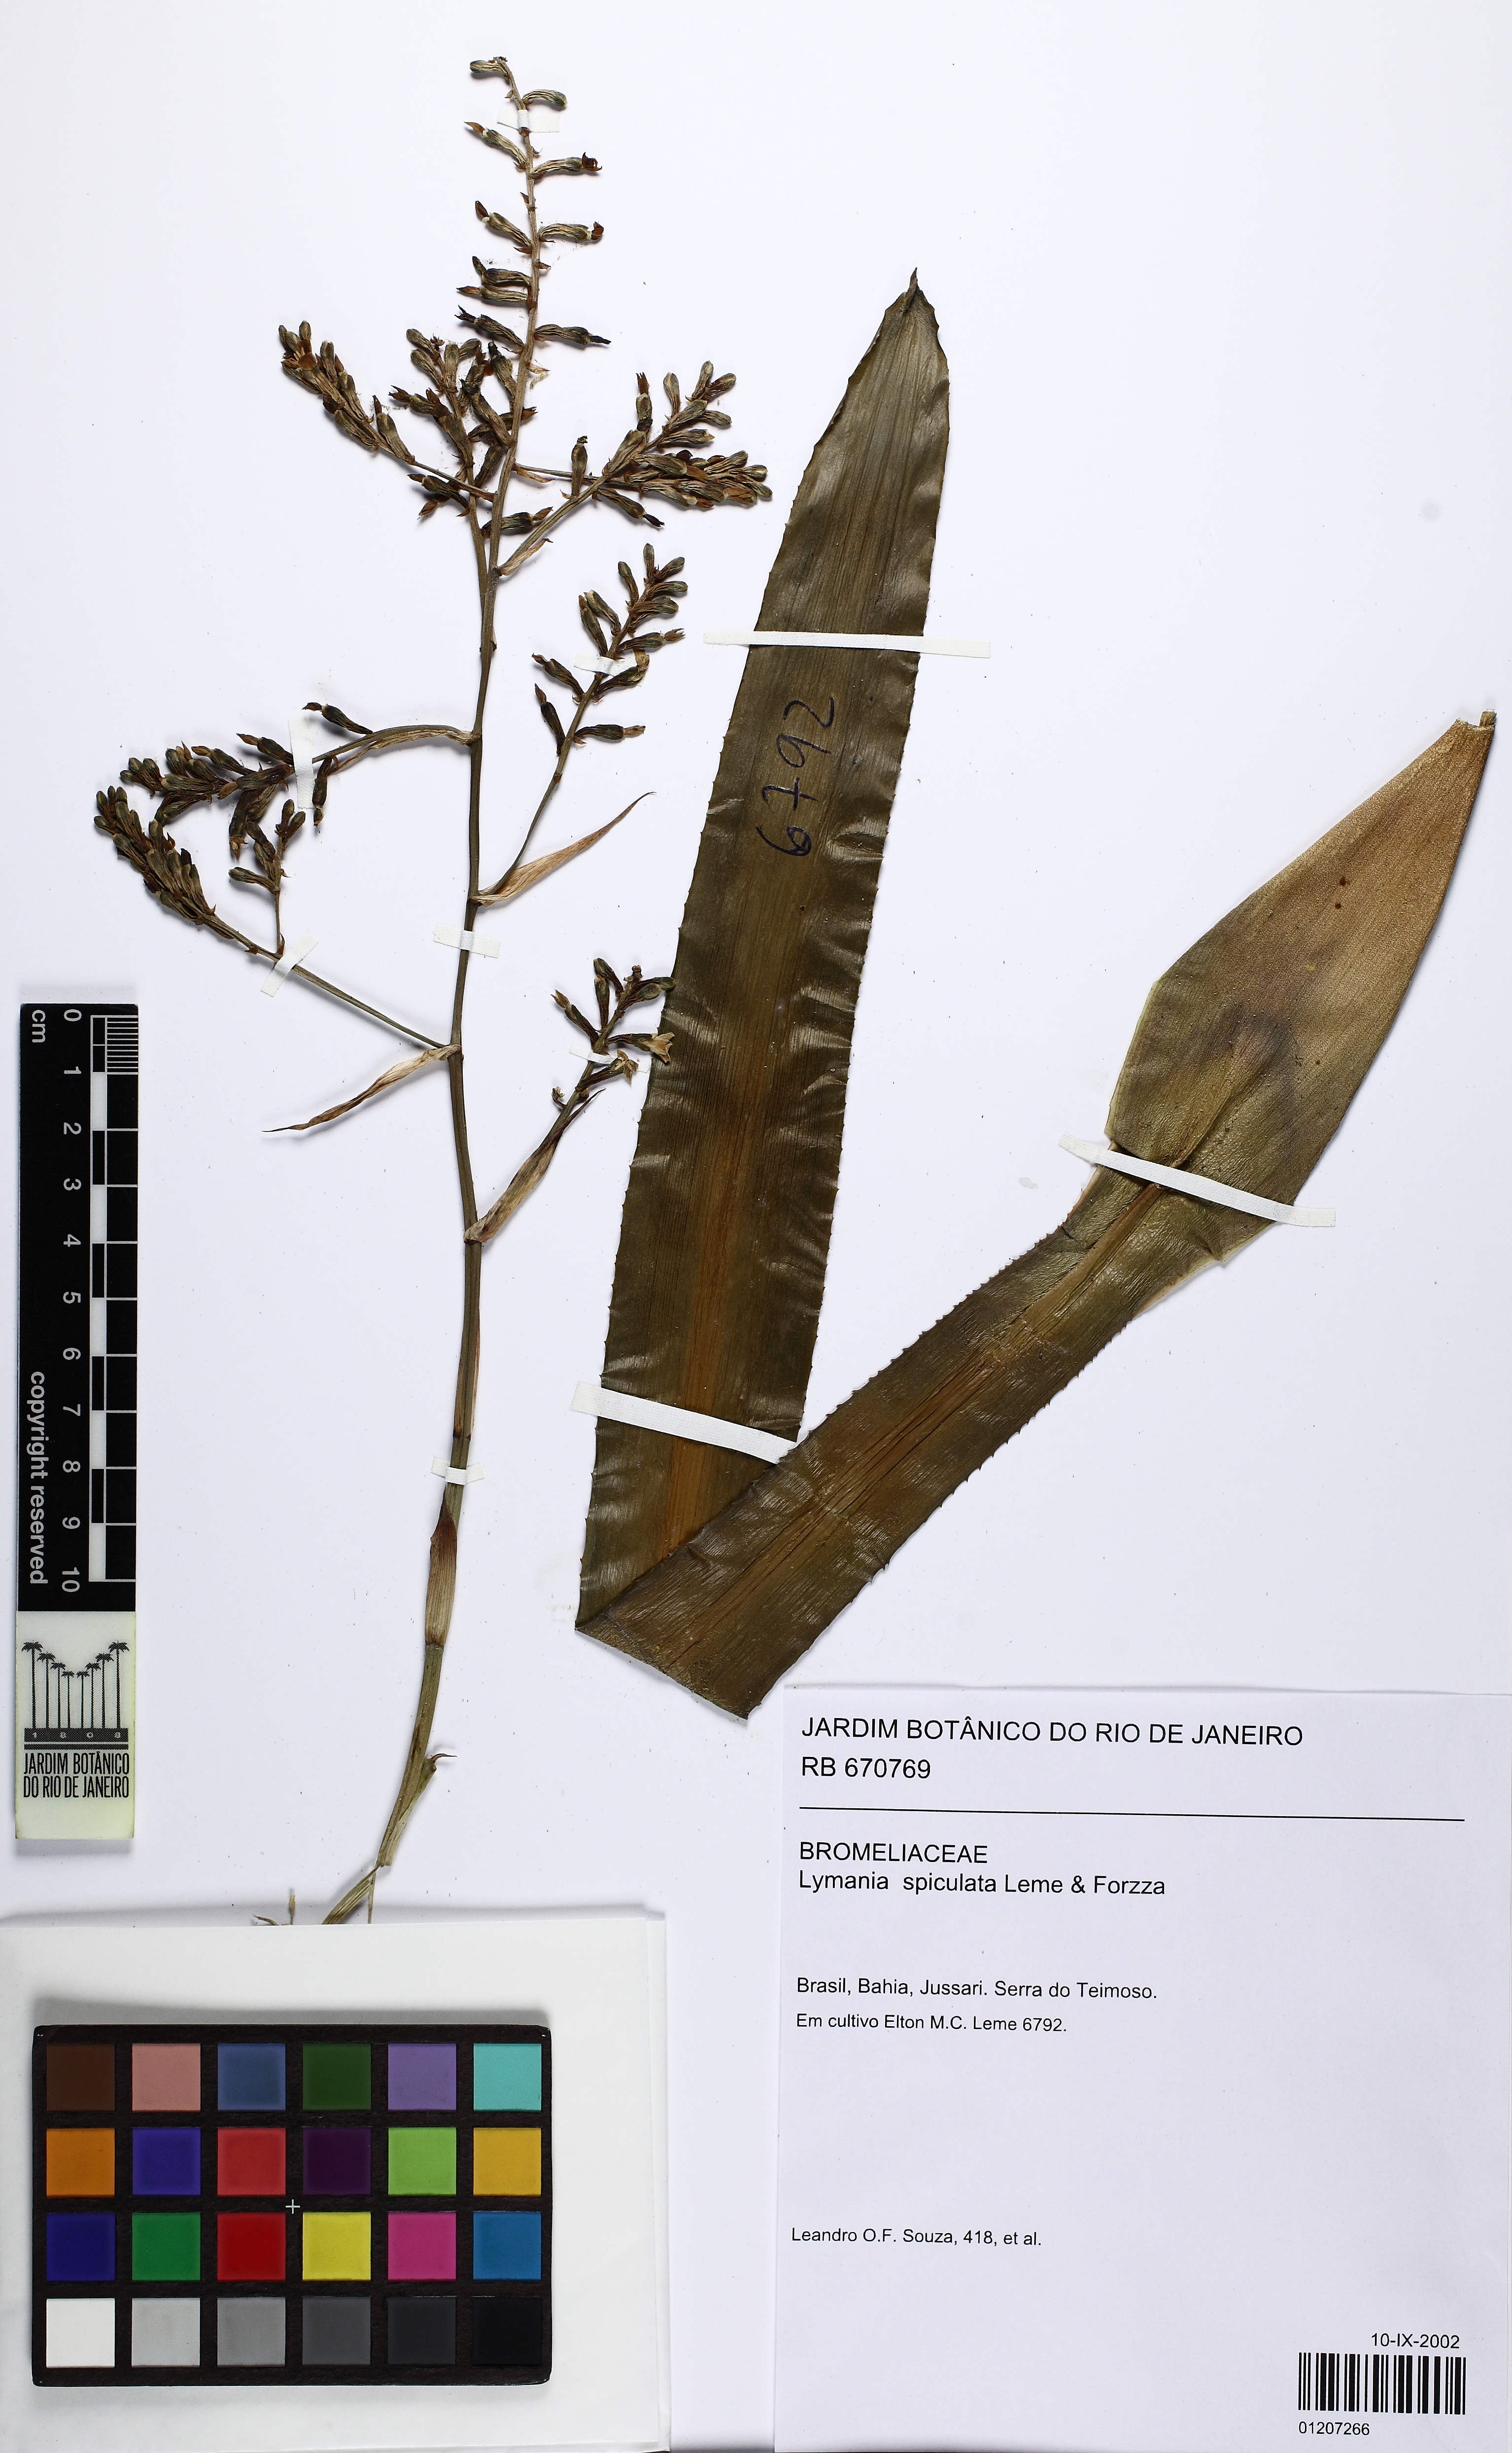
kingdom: Plantae
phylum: Tracheophyta
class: Liliopsida
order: Poales
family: Bromeliaceae
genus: Lymania
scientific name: Lymania spiculata
